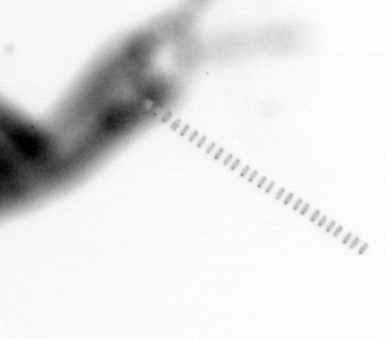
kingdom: Animalia
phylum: Arthropoda
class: Copepoda
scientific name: Copepoda
